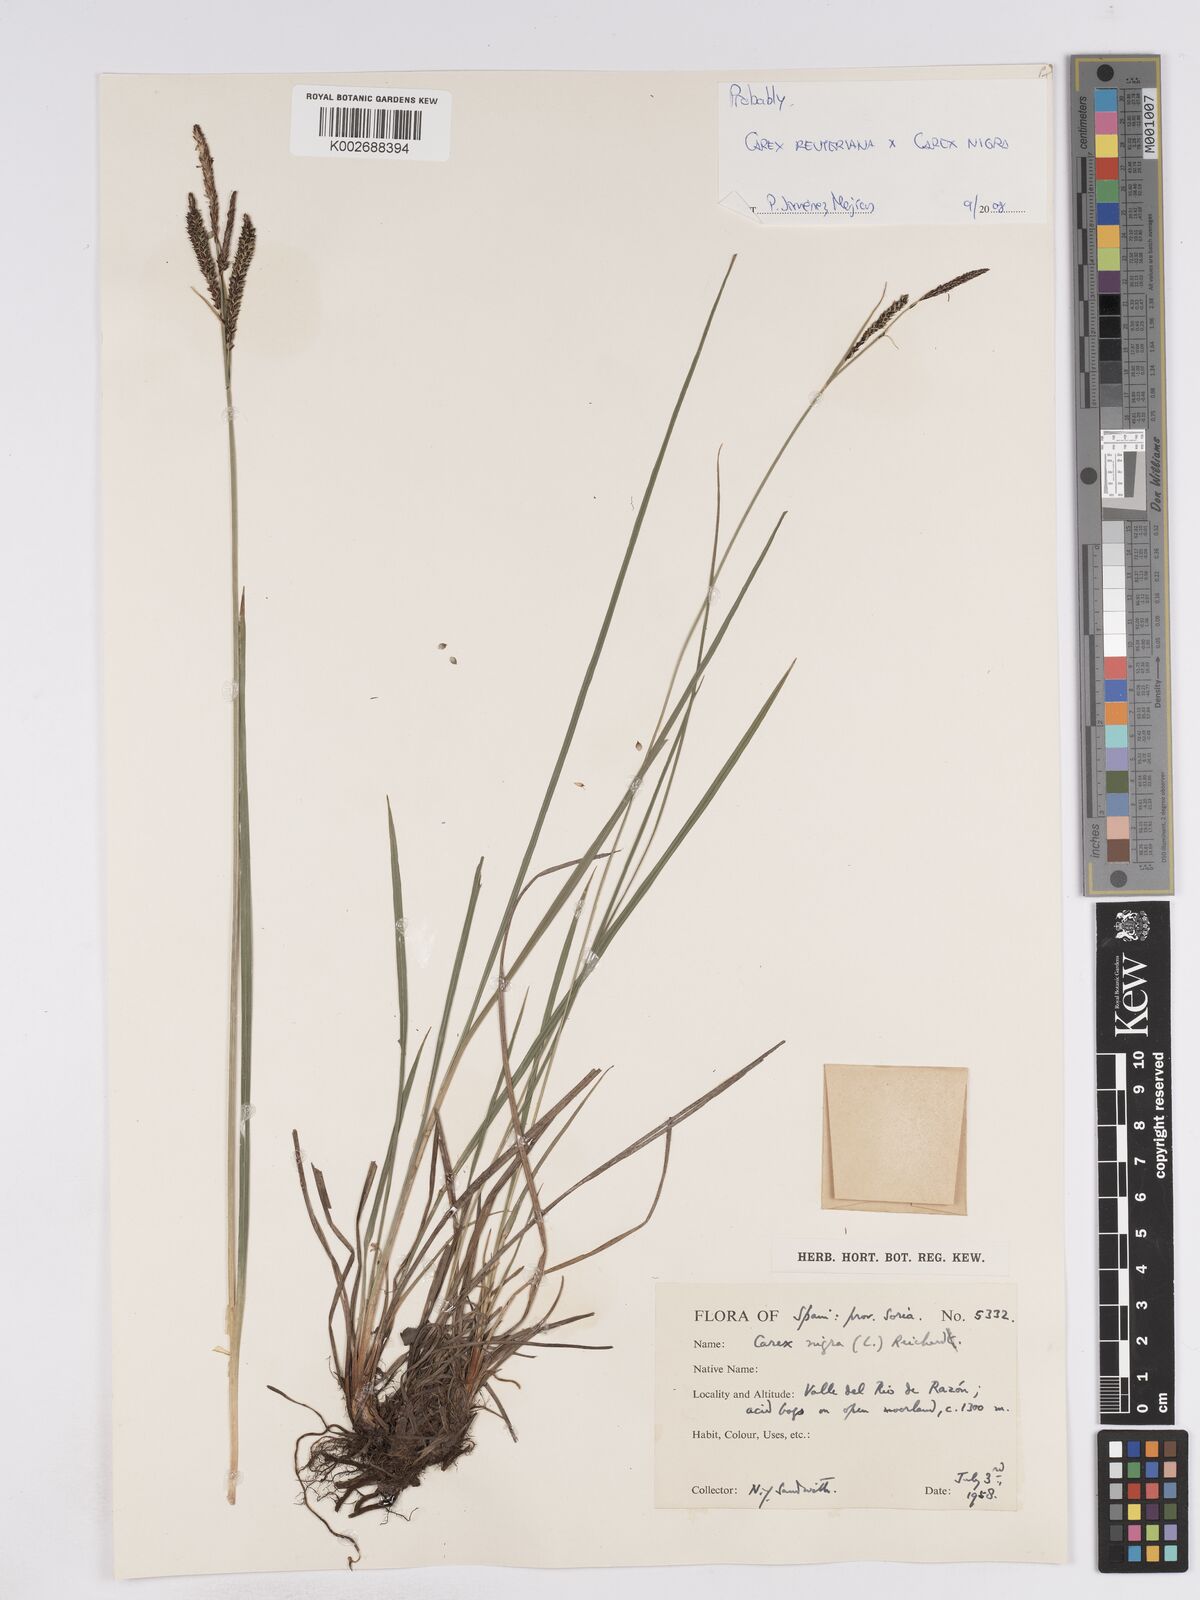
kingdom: Plantae
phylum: Tracheophyta
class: Liliopsida
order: Poales
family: Cyperaceae
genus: Carex
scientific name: Carex reuteriana
